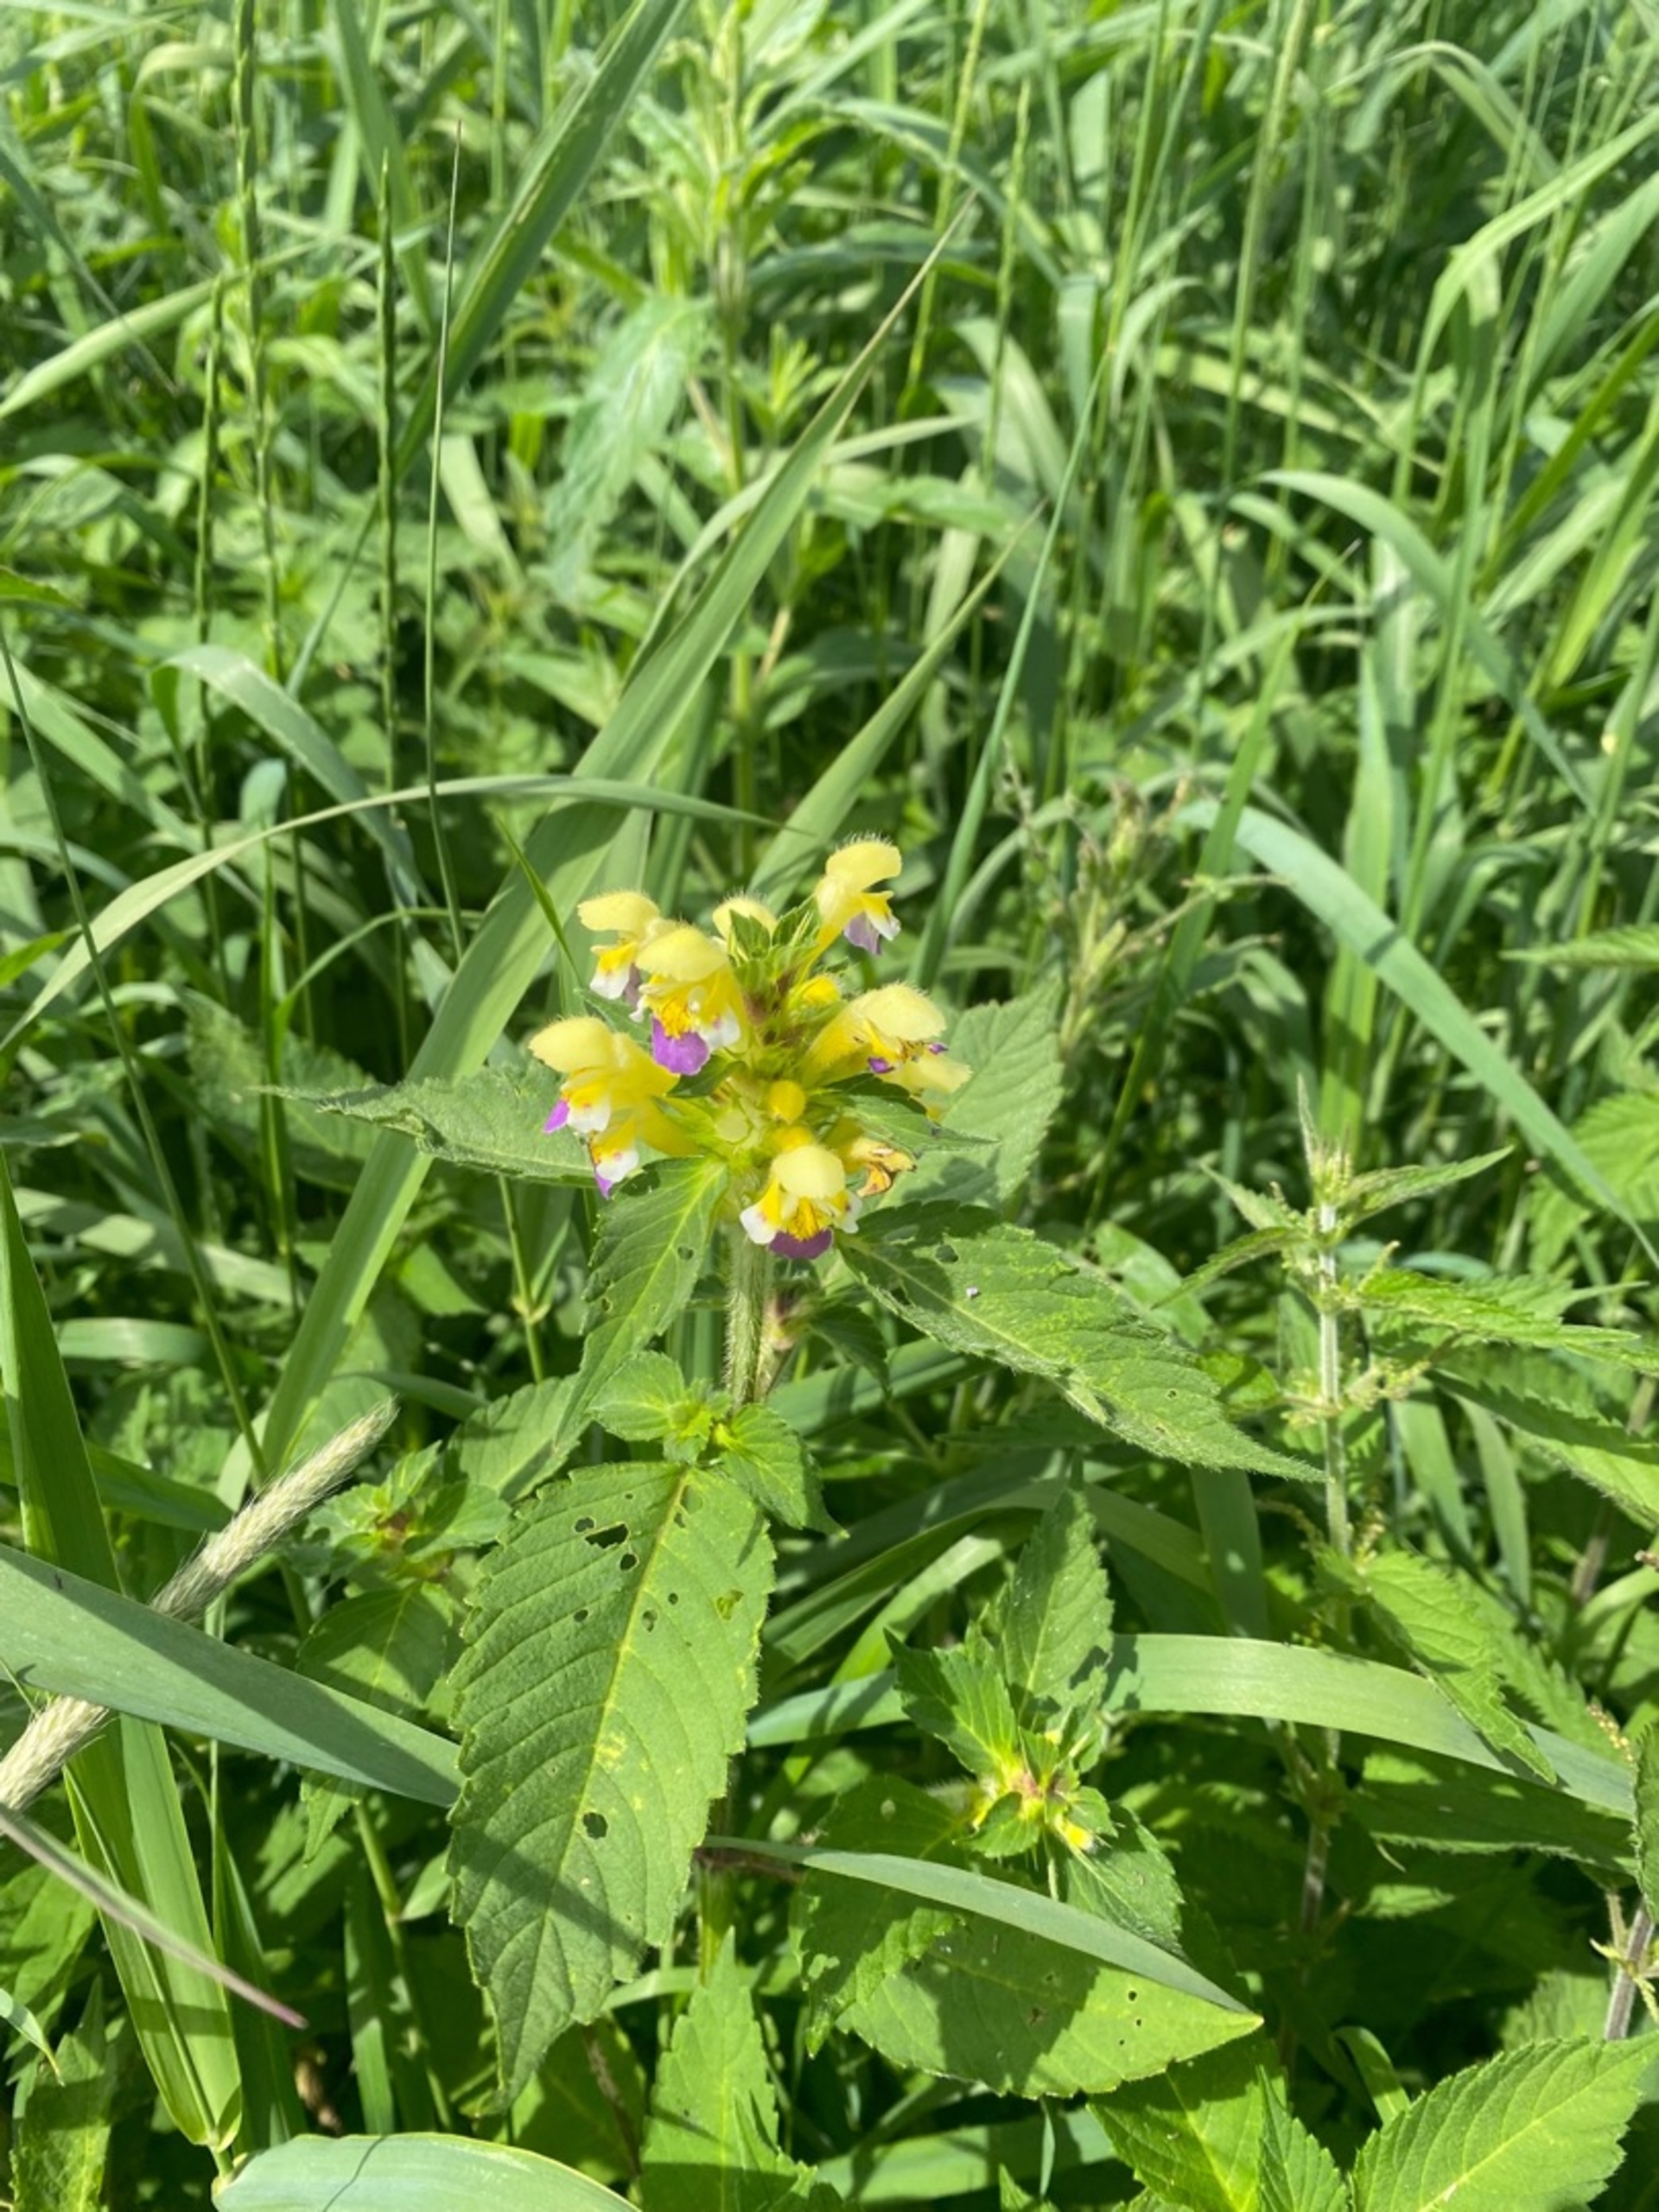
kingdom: Plantae
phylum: Tracheophyta
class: Magnoliopsida
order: Lamiales
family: Lamiaceae
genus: Galeopsis
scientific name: Galeopsis speciosa
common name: Hamp-hanekro
